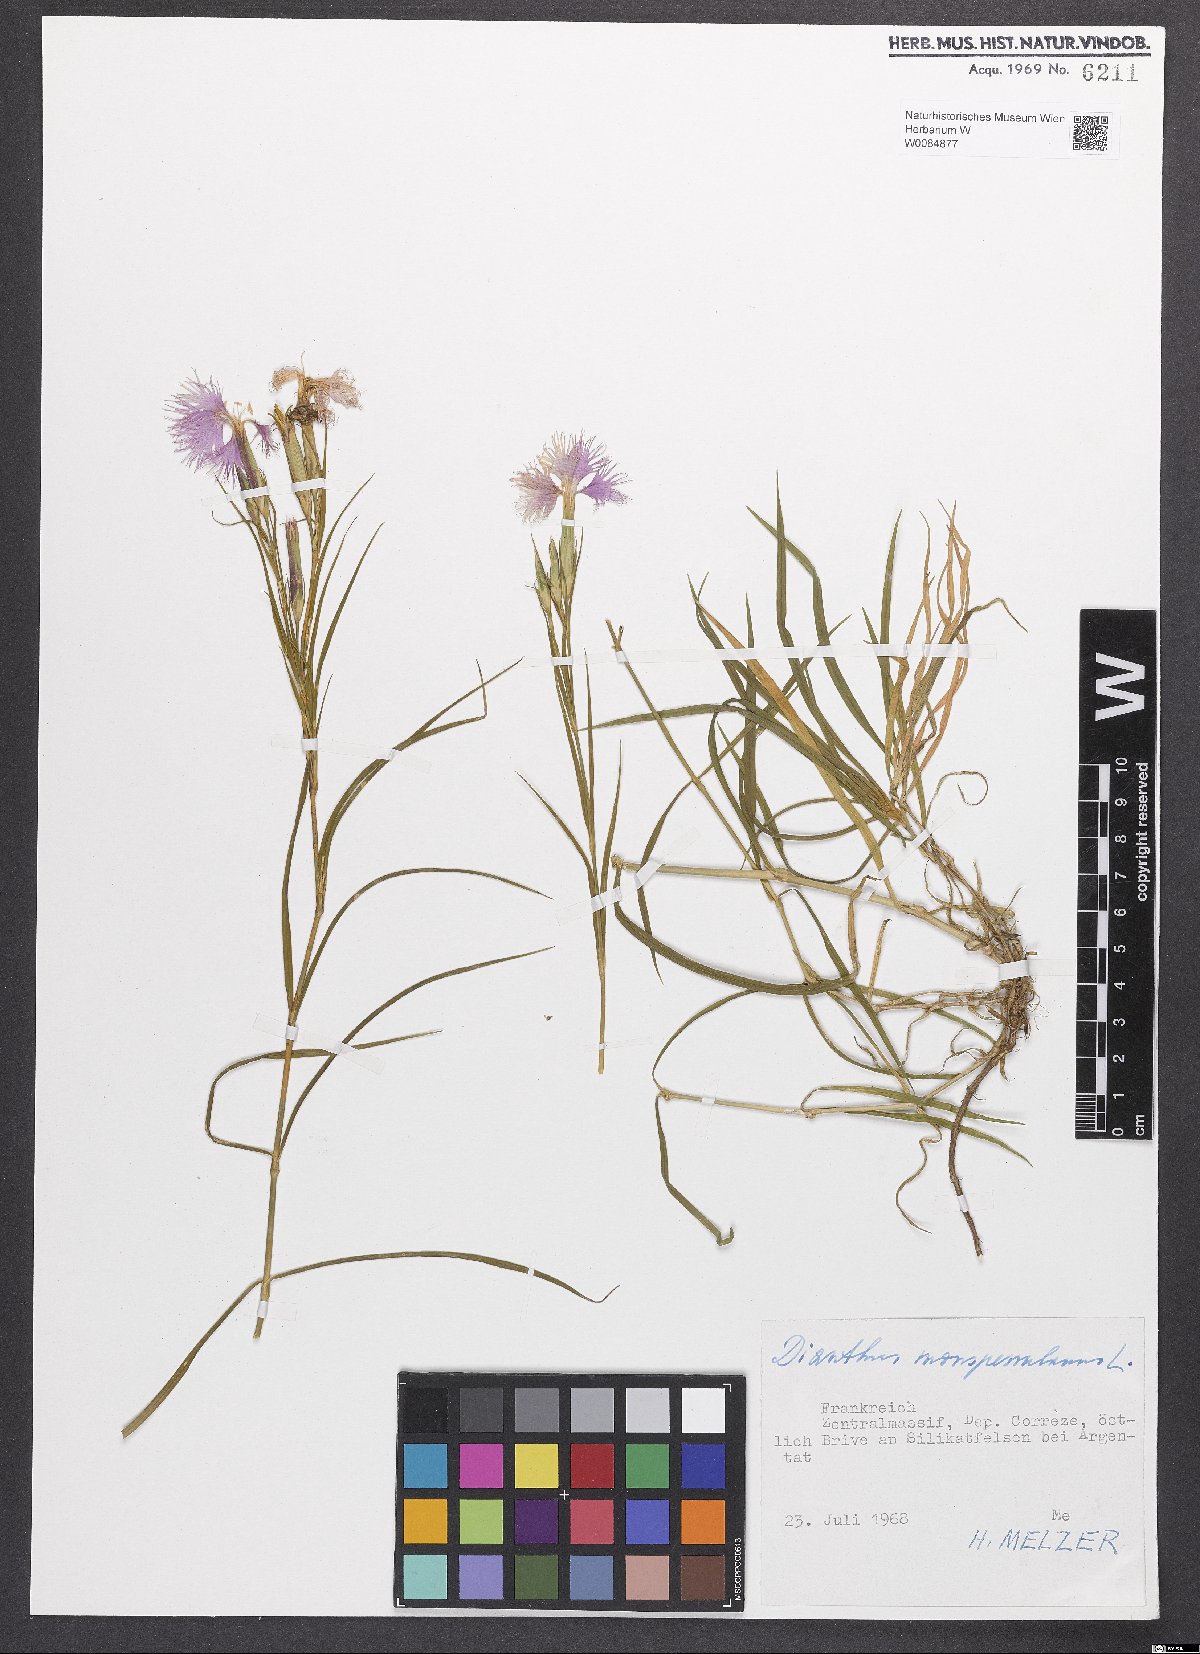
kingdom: Plantae
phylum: Tracheophyta
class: Magnoliopsida
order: Caryophyllales
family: Caryophyllaceae
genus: Dianthus
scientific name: Dianthus hyssopifolius
